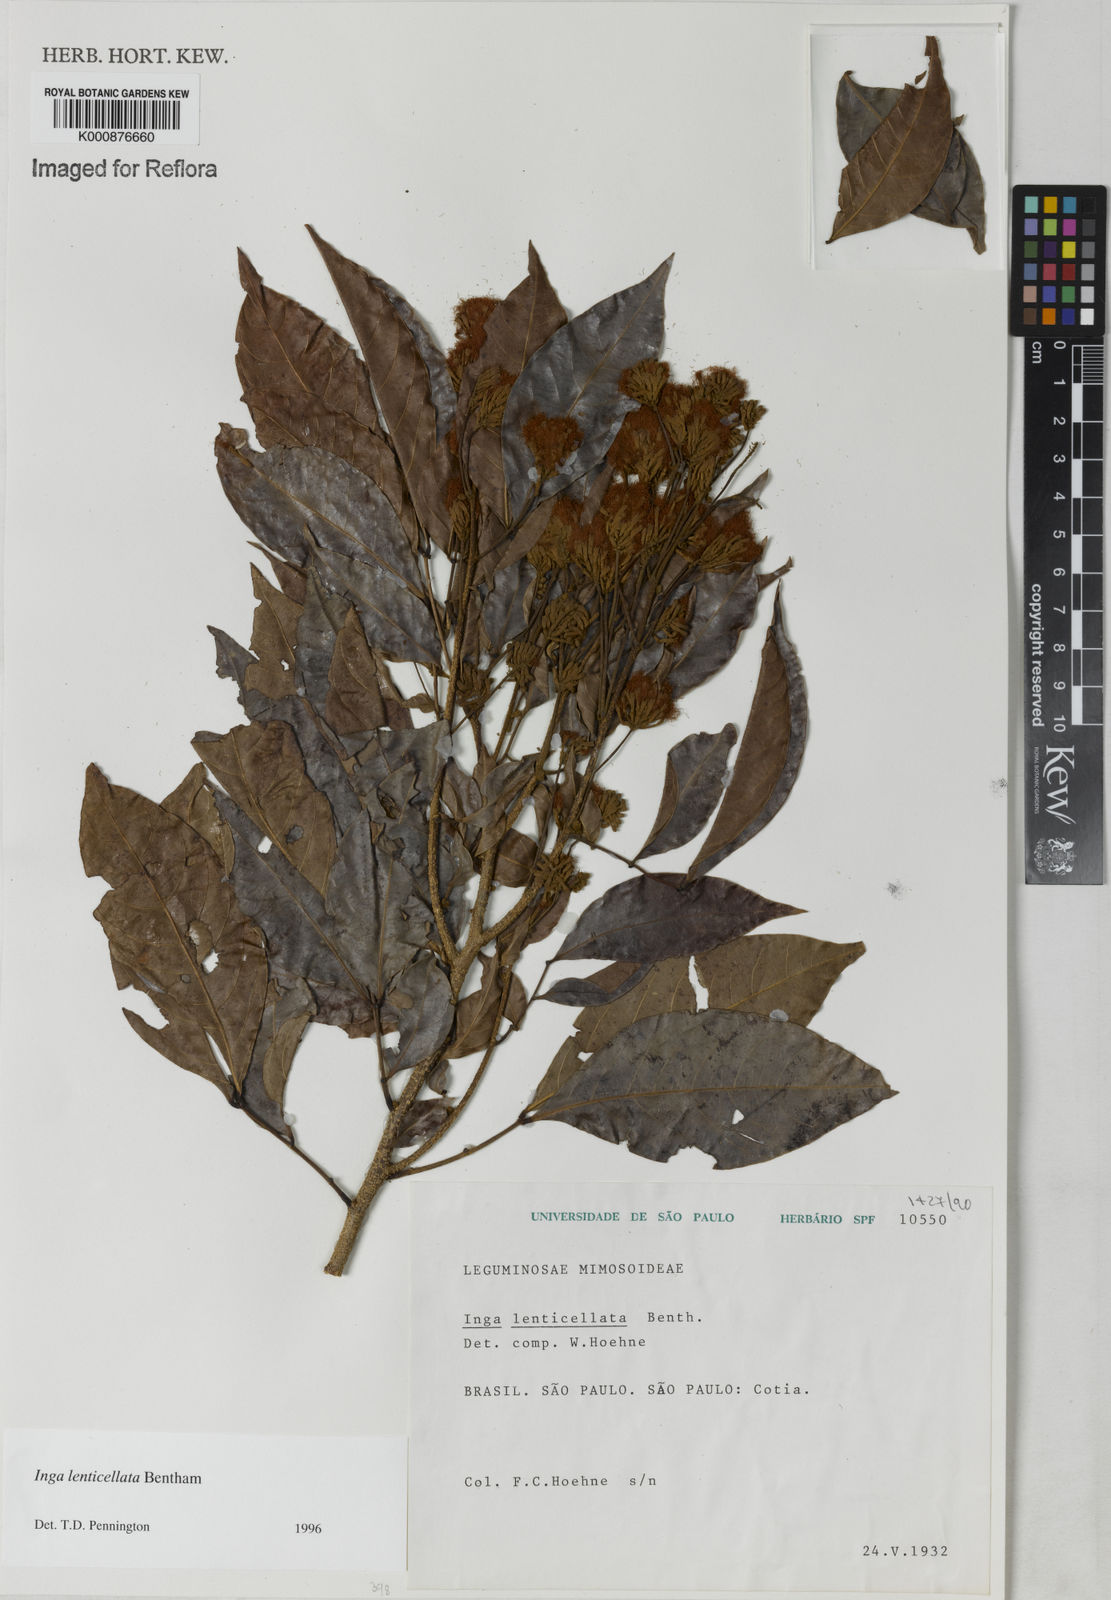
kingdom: Plantae
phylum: Tracheophyta
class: Magnoliopsida
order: Fabales
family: Fabaceae
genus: Inga
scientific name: Inga lenticellata
